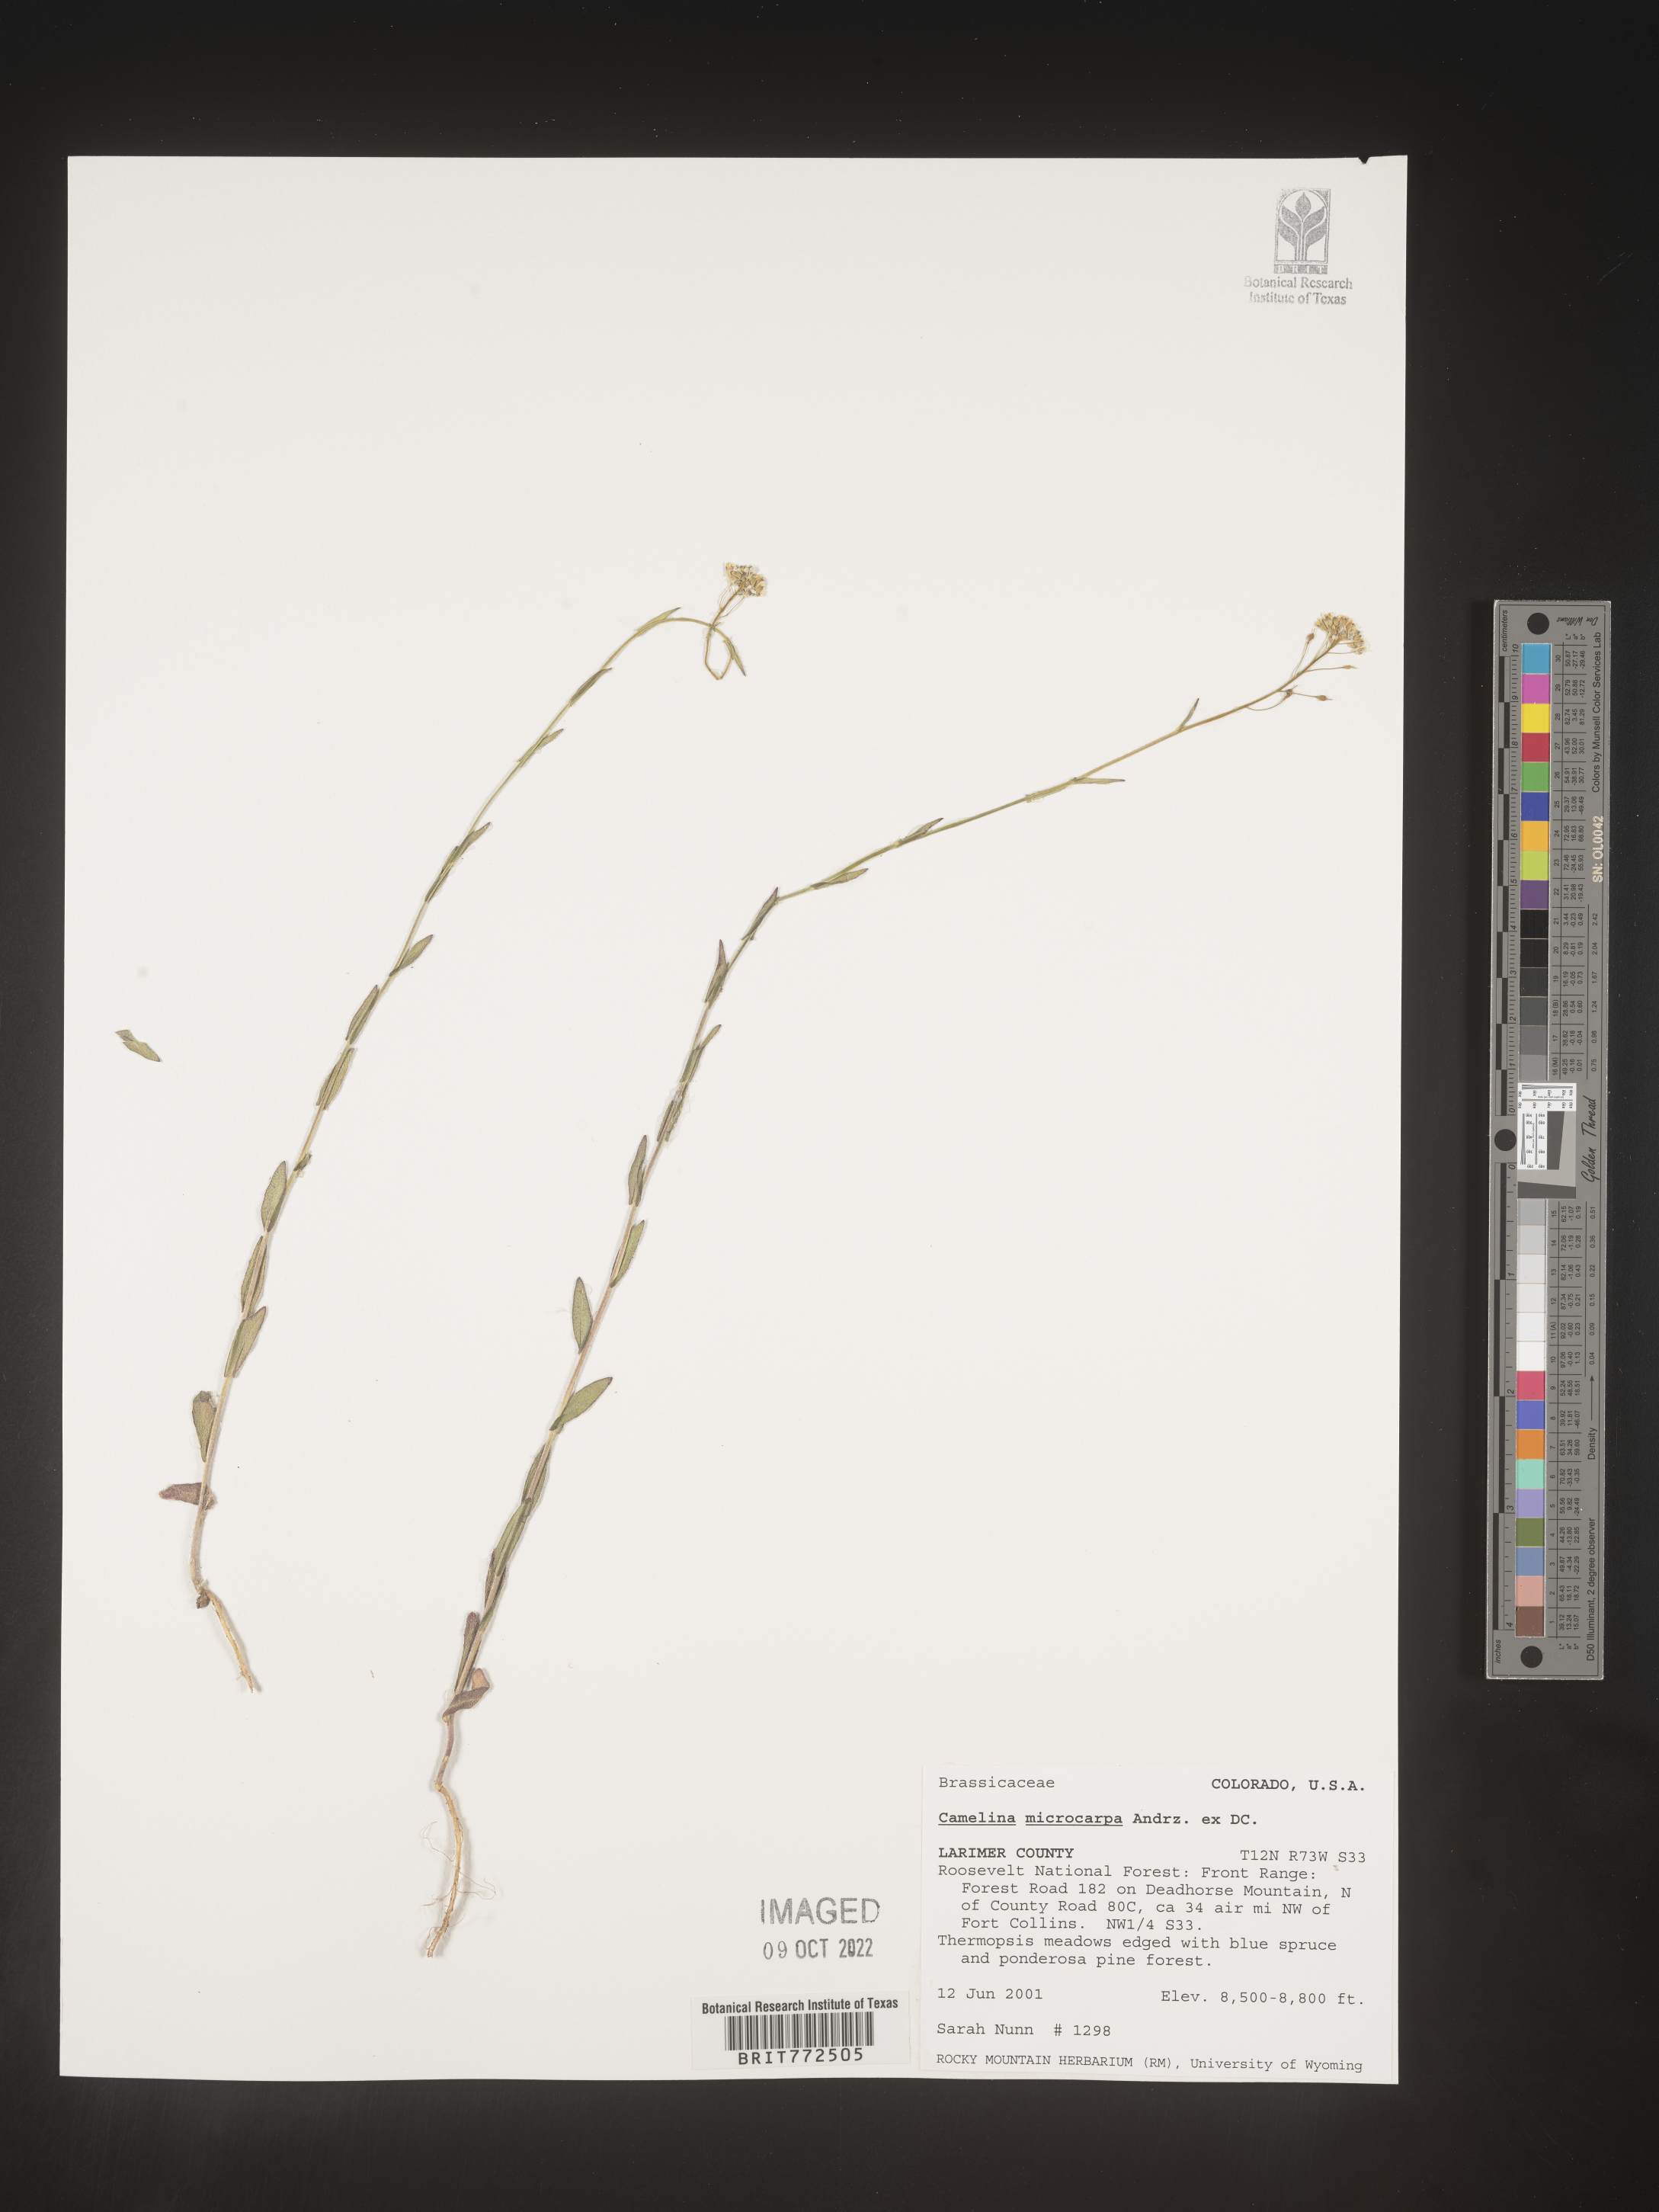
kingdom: Plantae
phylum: Tracheophyta
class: Magnoliopsida
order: Brassicales
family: Brassicaceae
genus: Camelina
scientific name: Camelina microcarpa
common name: Lesser gold-of-pleasure
